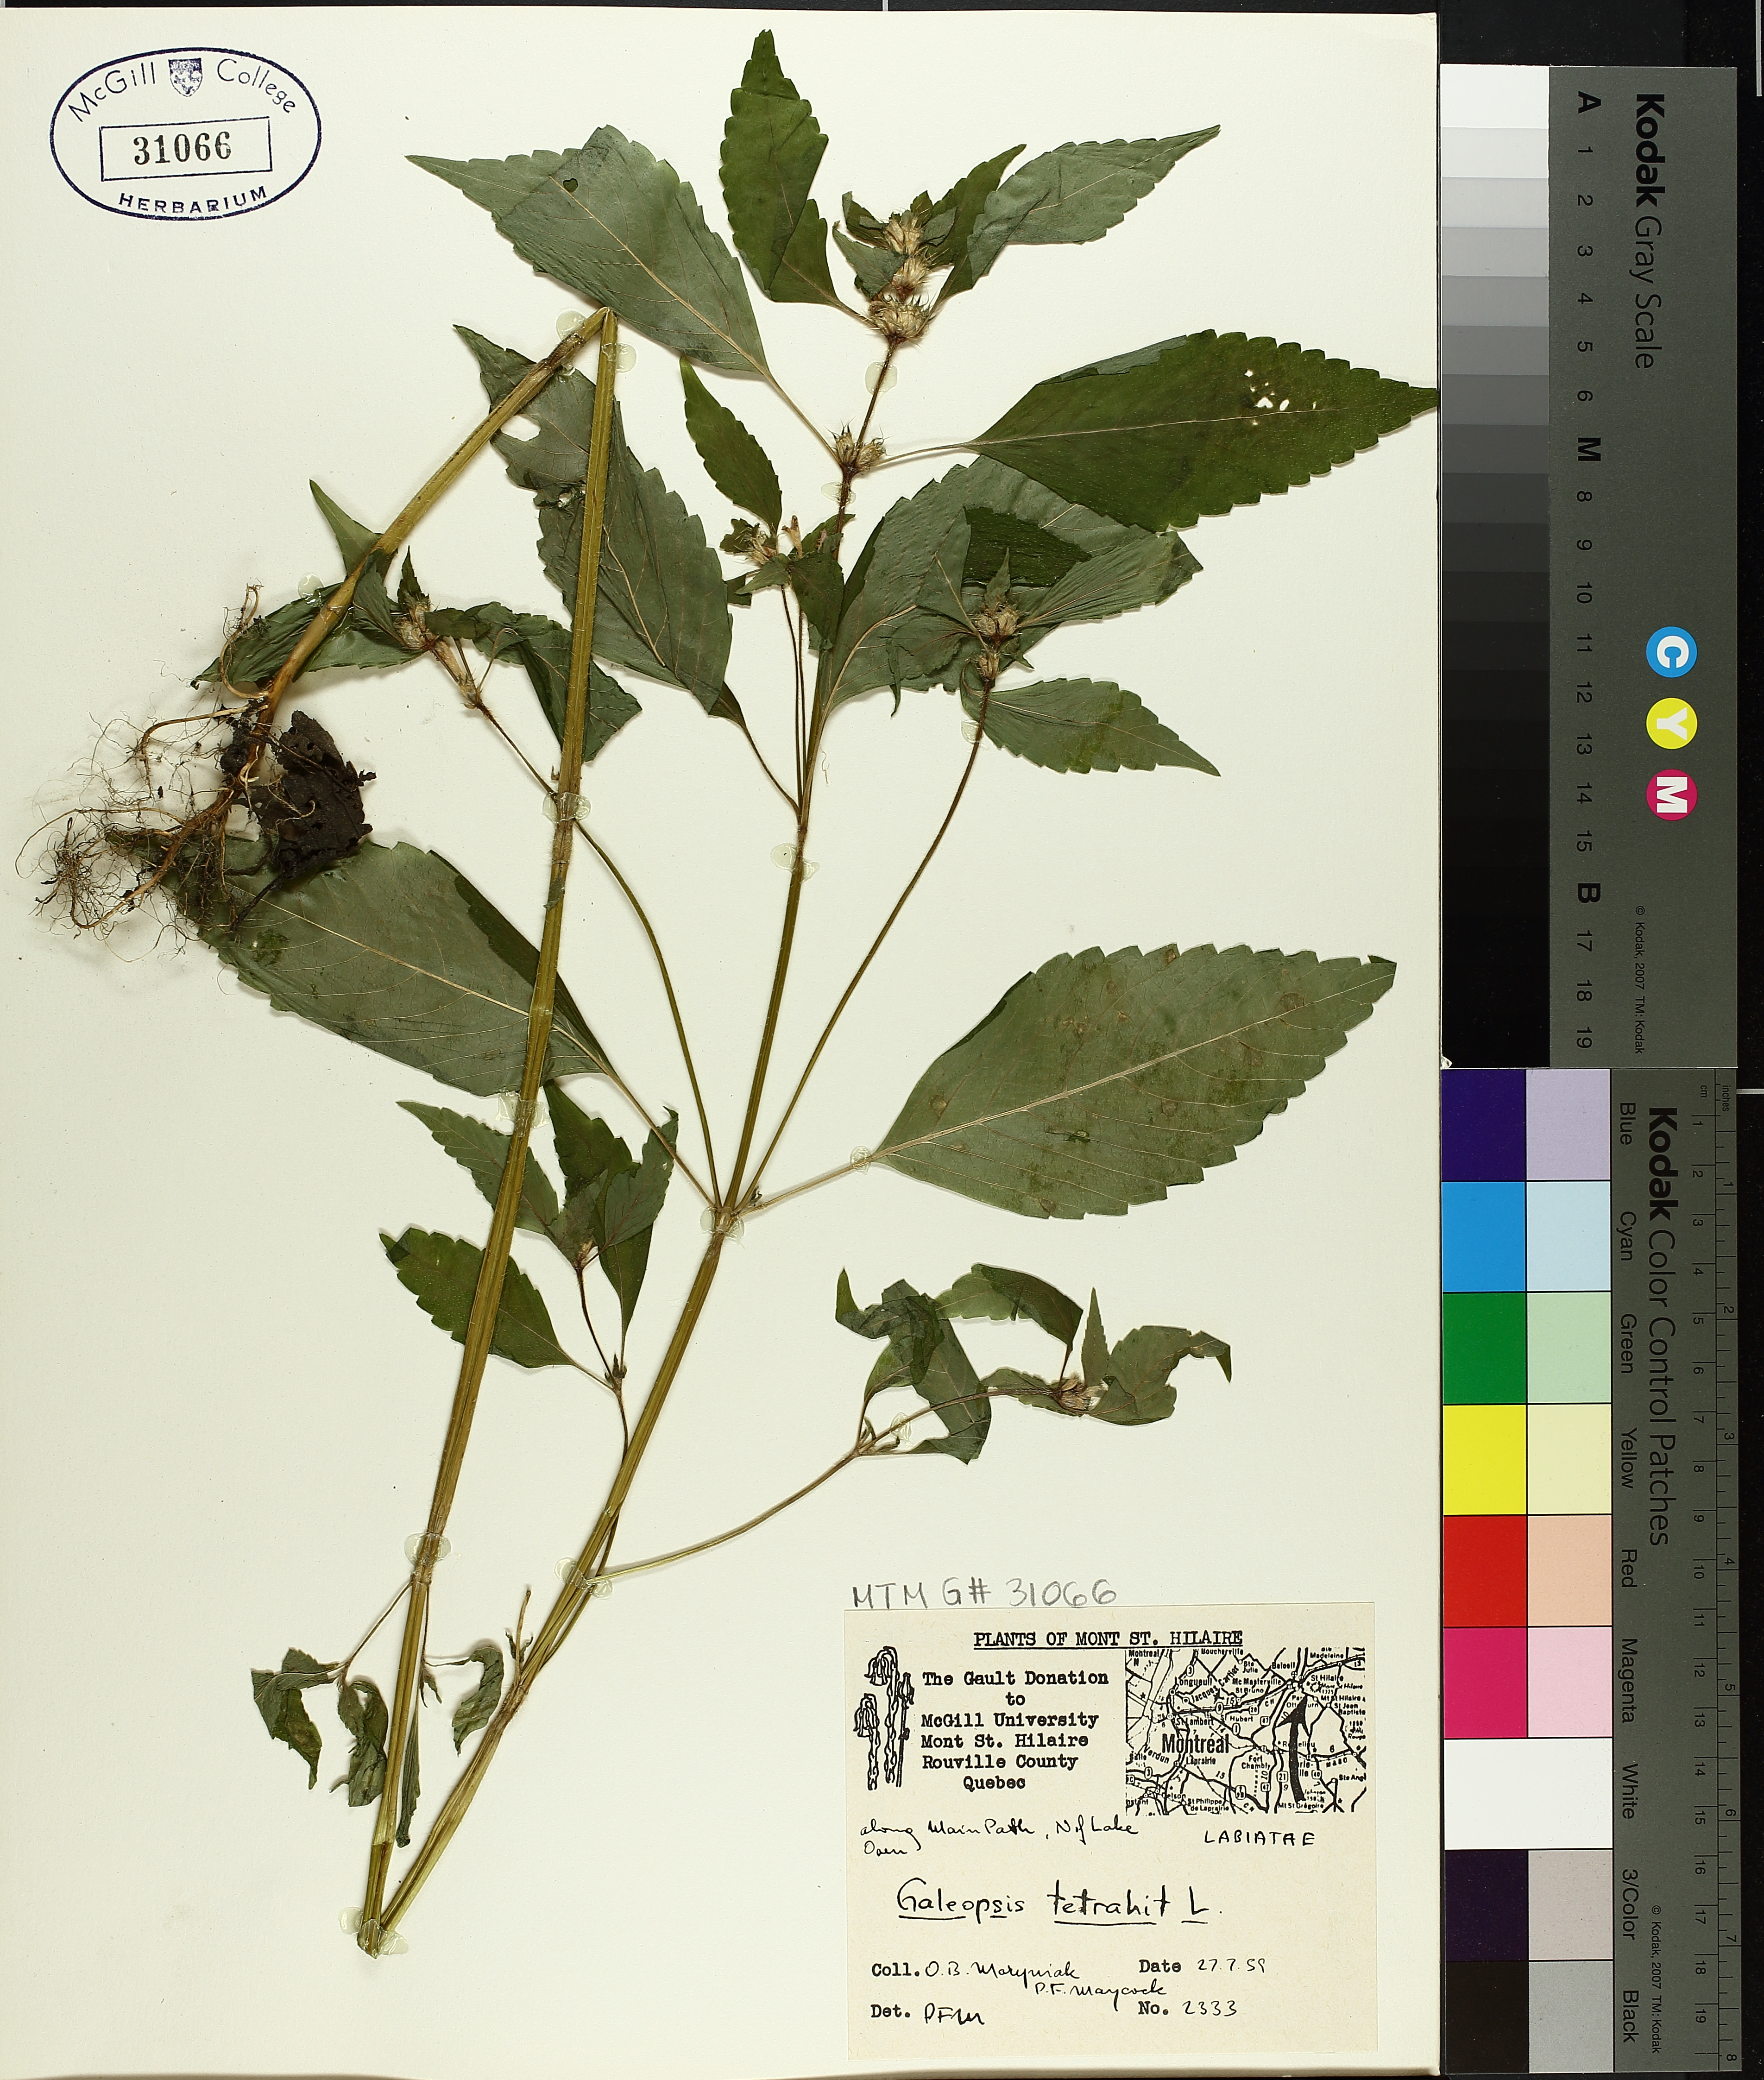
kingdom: Plantae
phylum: Tracheophyta
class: Magnoliopsida
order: Lamiales
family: Lamiaceae
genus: Galeopsis
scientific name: Galeopsis tetrahit
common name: Common hemp-nettle
